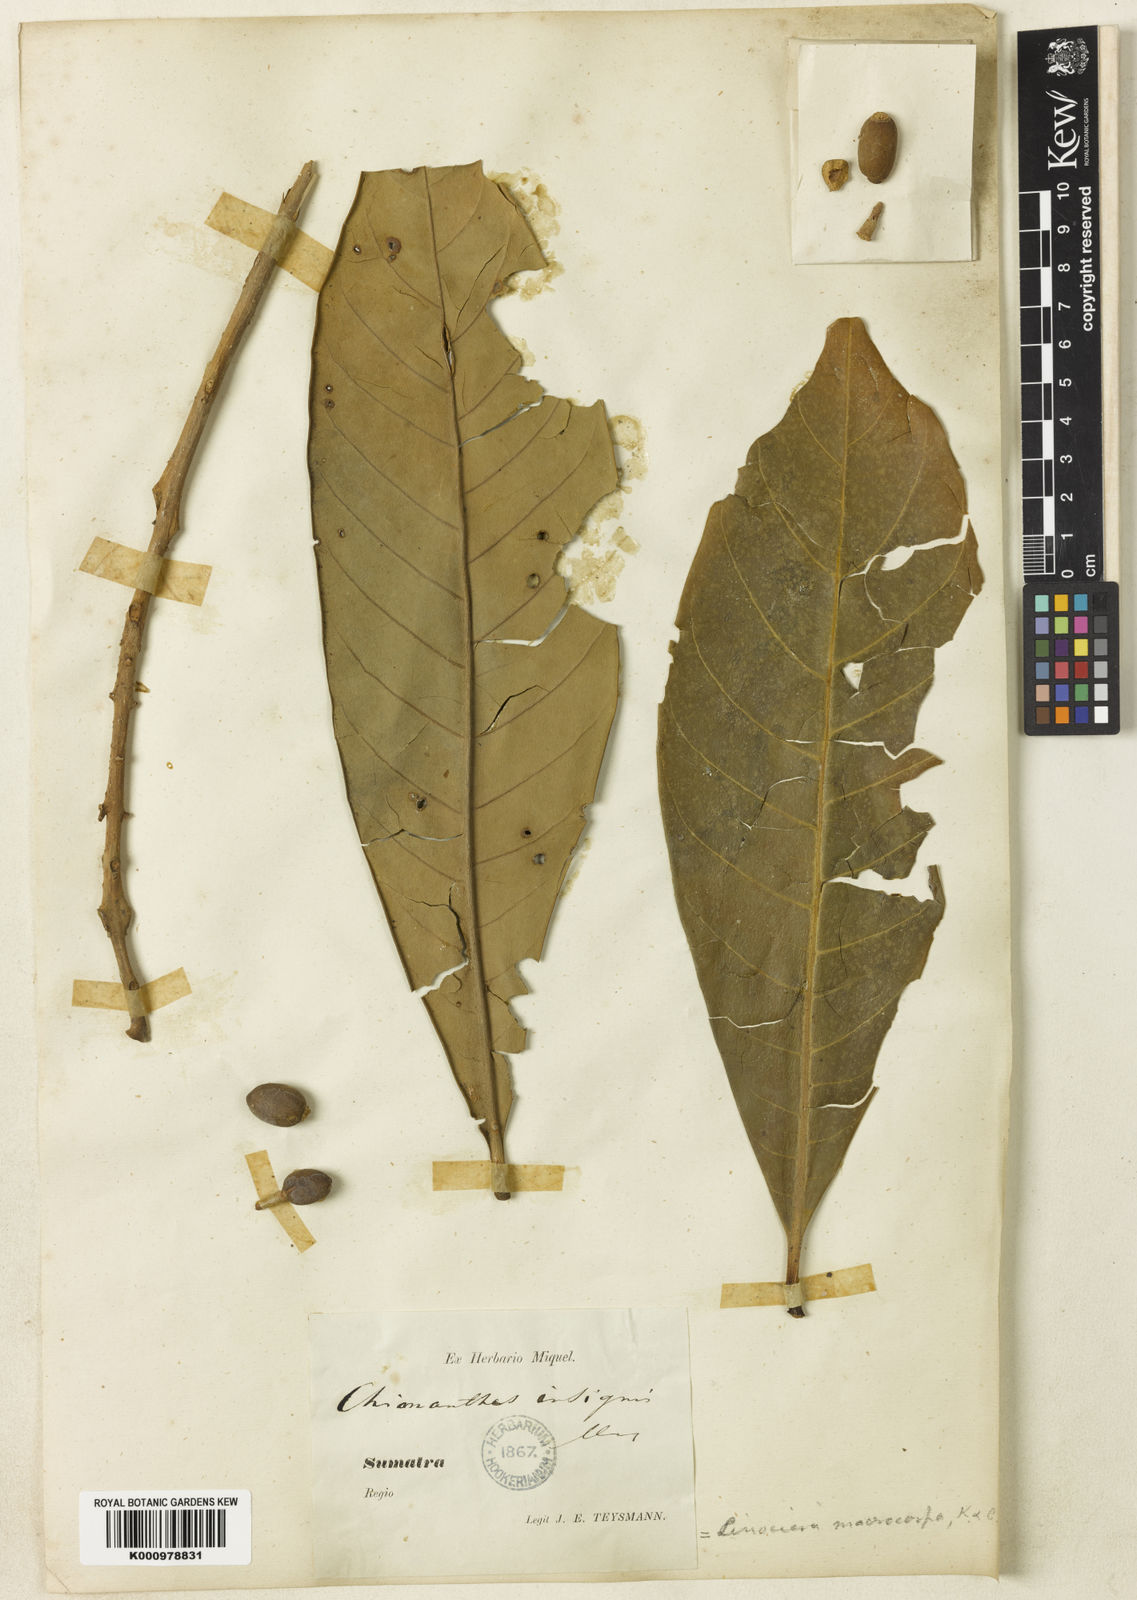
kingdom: Plantae
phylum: Tracheophyta
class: Magnoliopsida
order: Lamiales
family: Oleaceae
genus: Chionanthus
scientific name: Chionanthus macrocarpus
